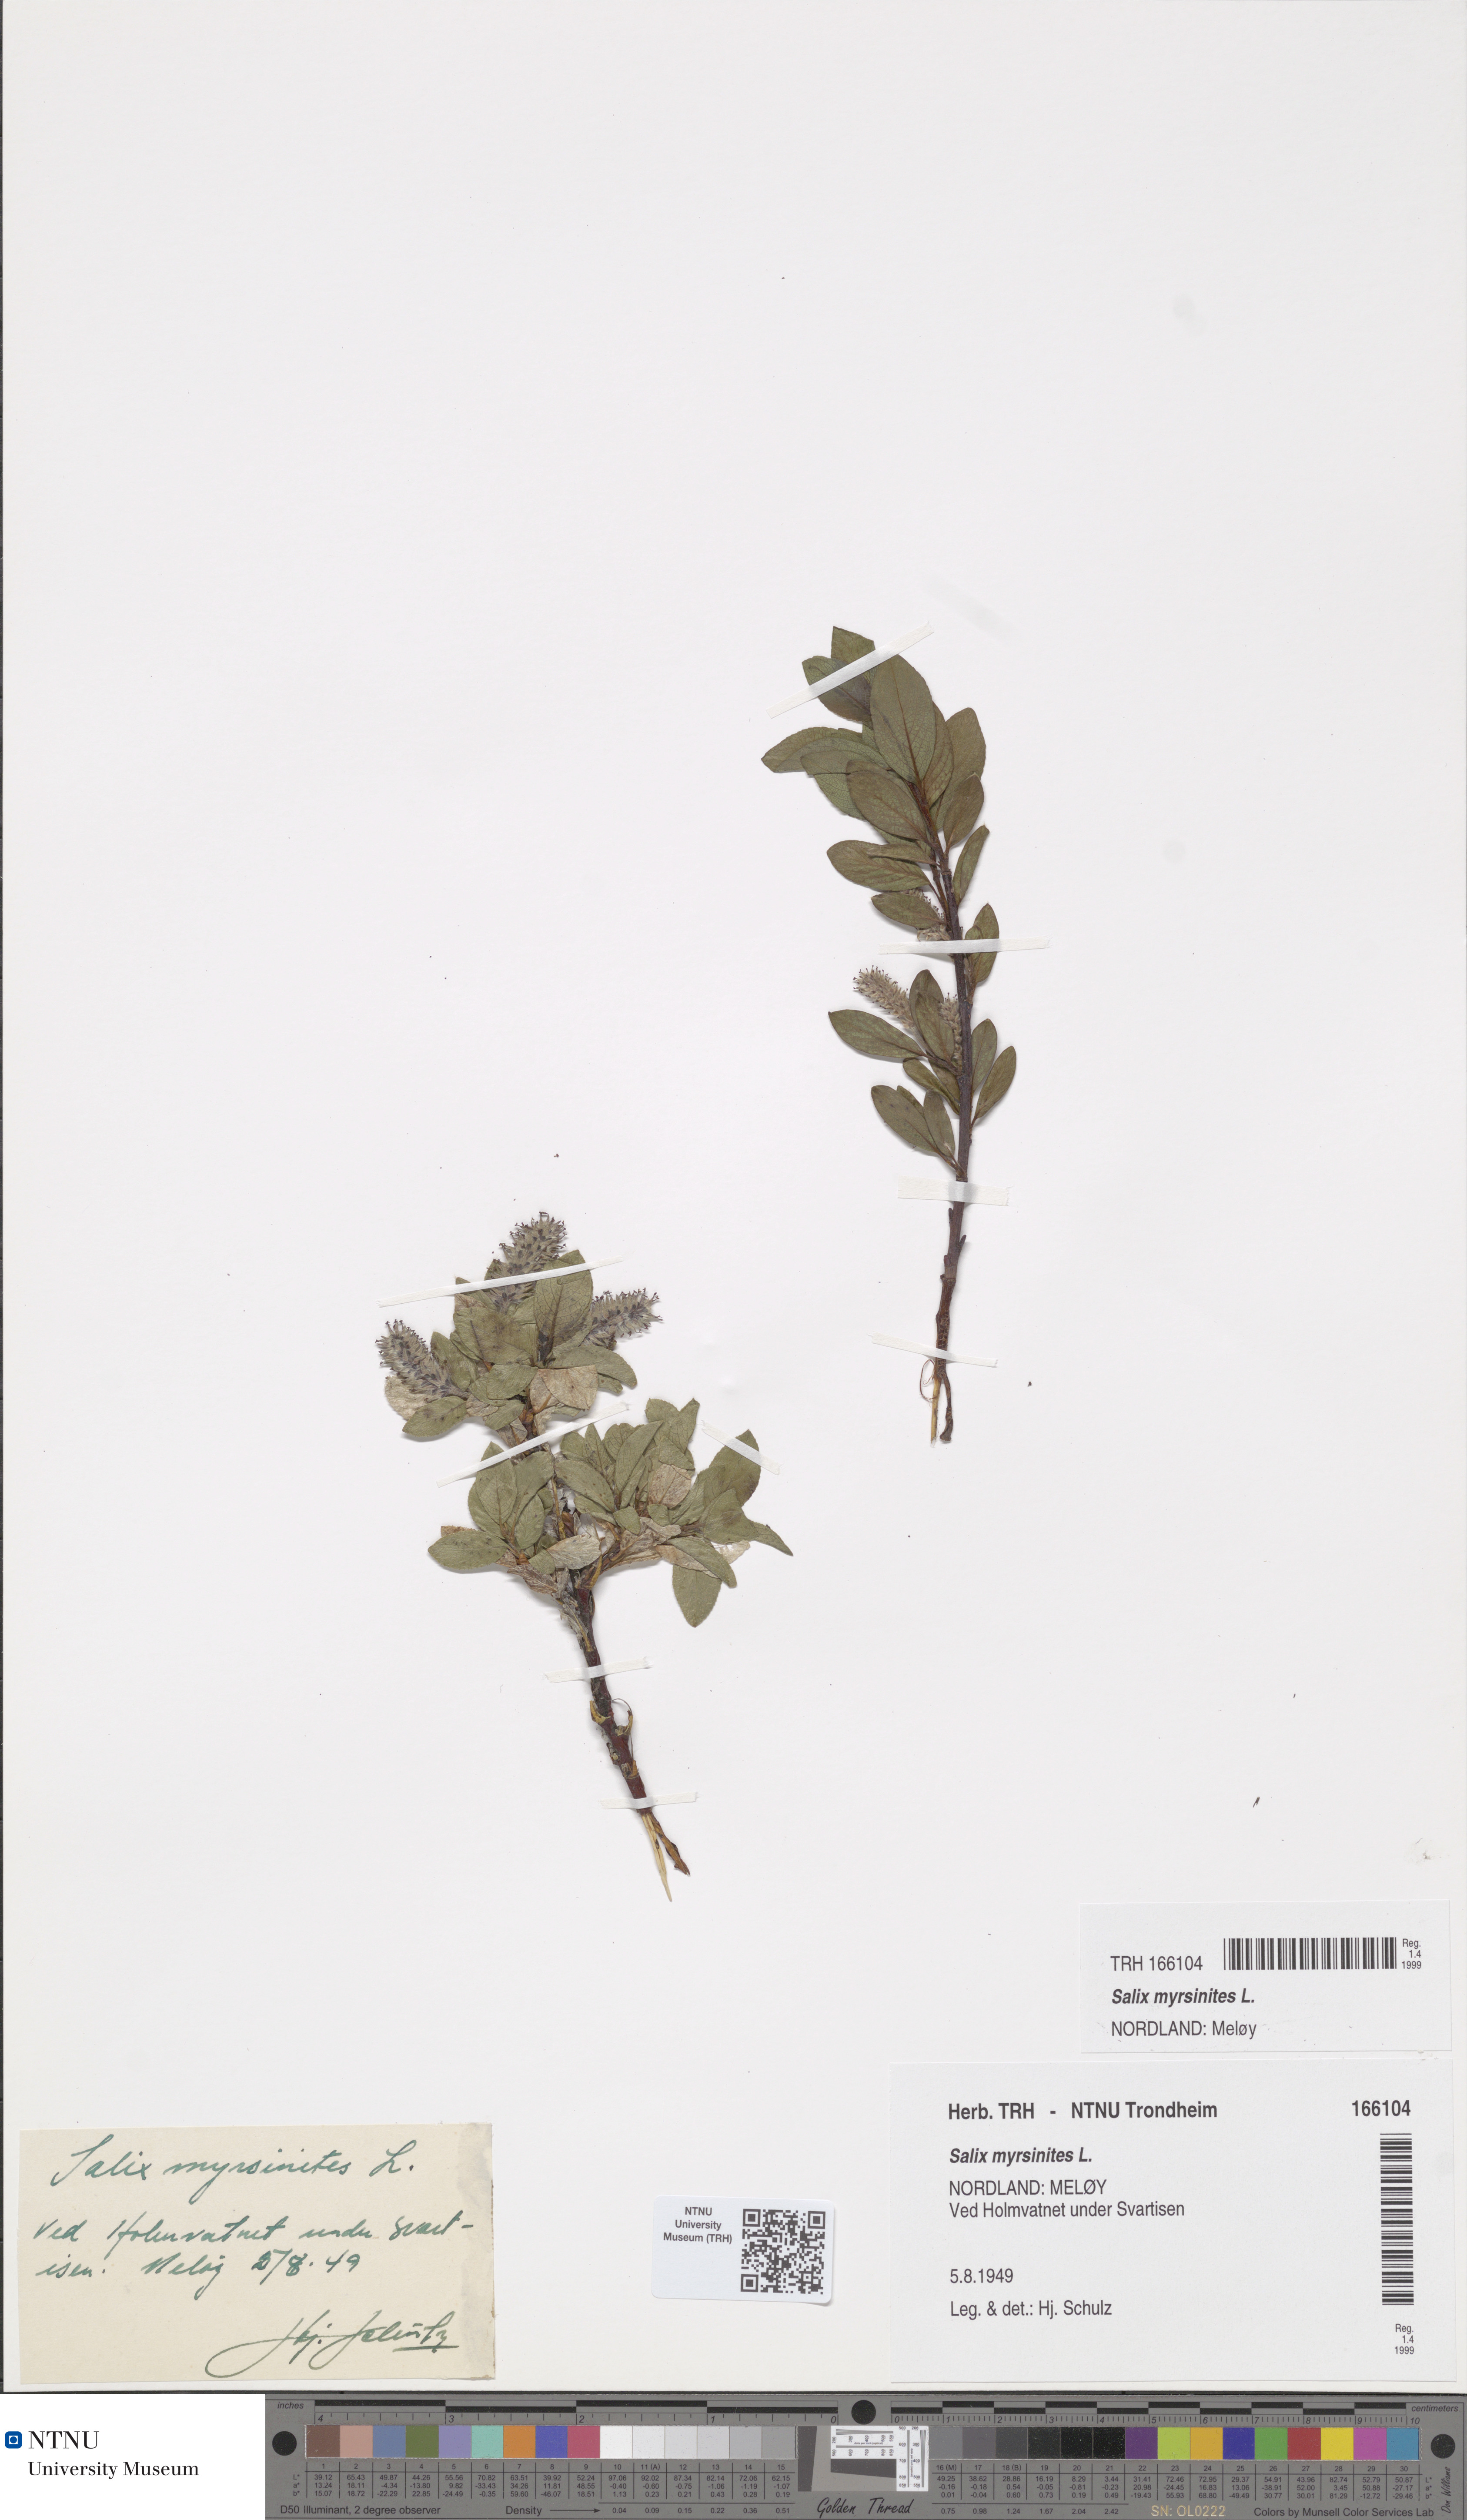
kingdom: Plantae
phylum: Tracheophyta
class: Magnoliopsida
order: Malpighiales
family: Salicaceae
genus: Salix
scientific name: Salix myrsinites
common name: Myrtle willow
